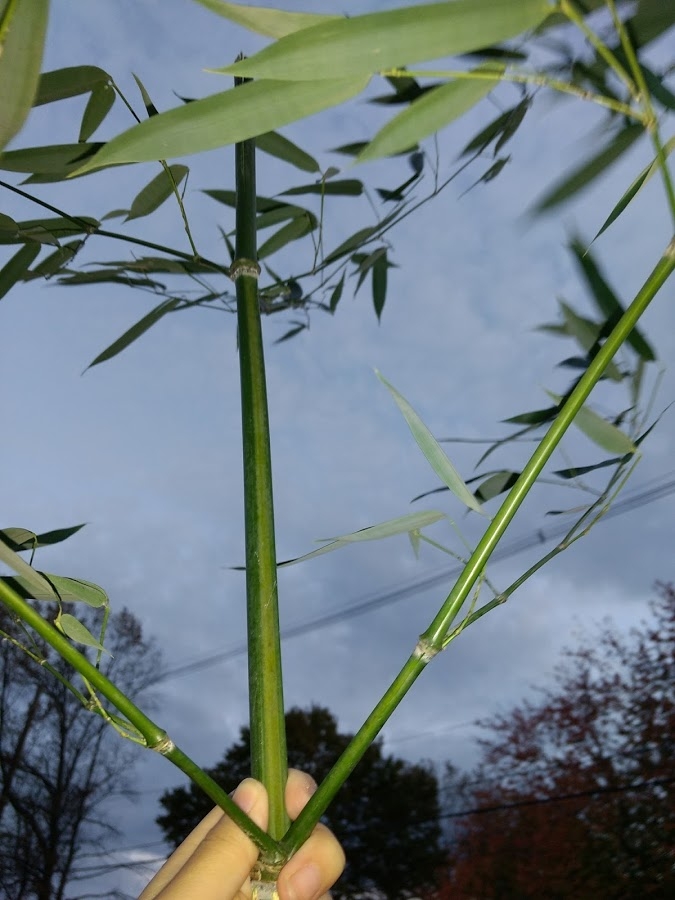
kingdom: Plantae
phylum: Tracheophyta
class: Liliopsida
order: Poales
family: Poaceae
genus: Phyllostachys
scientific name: Phyllostachys aurea
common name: bamboo
